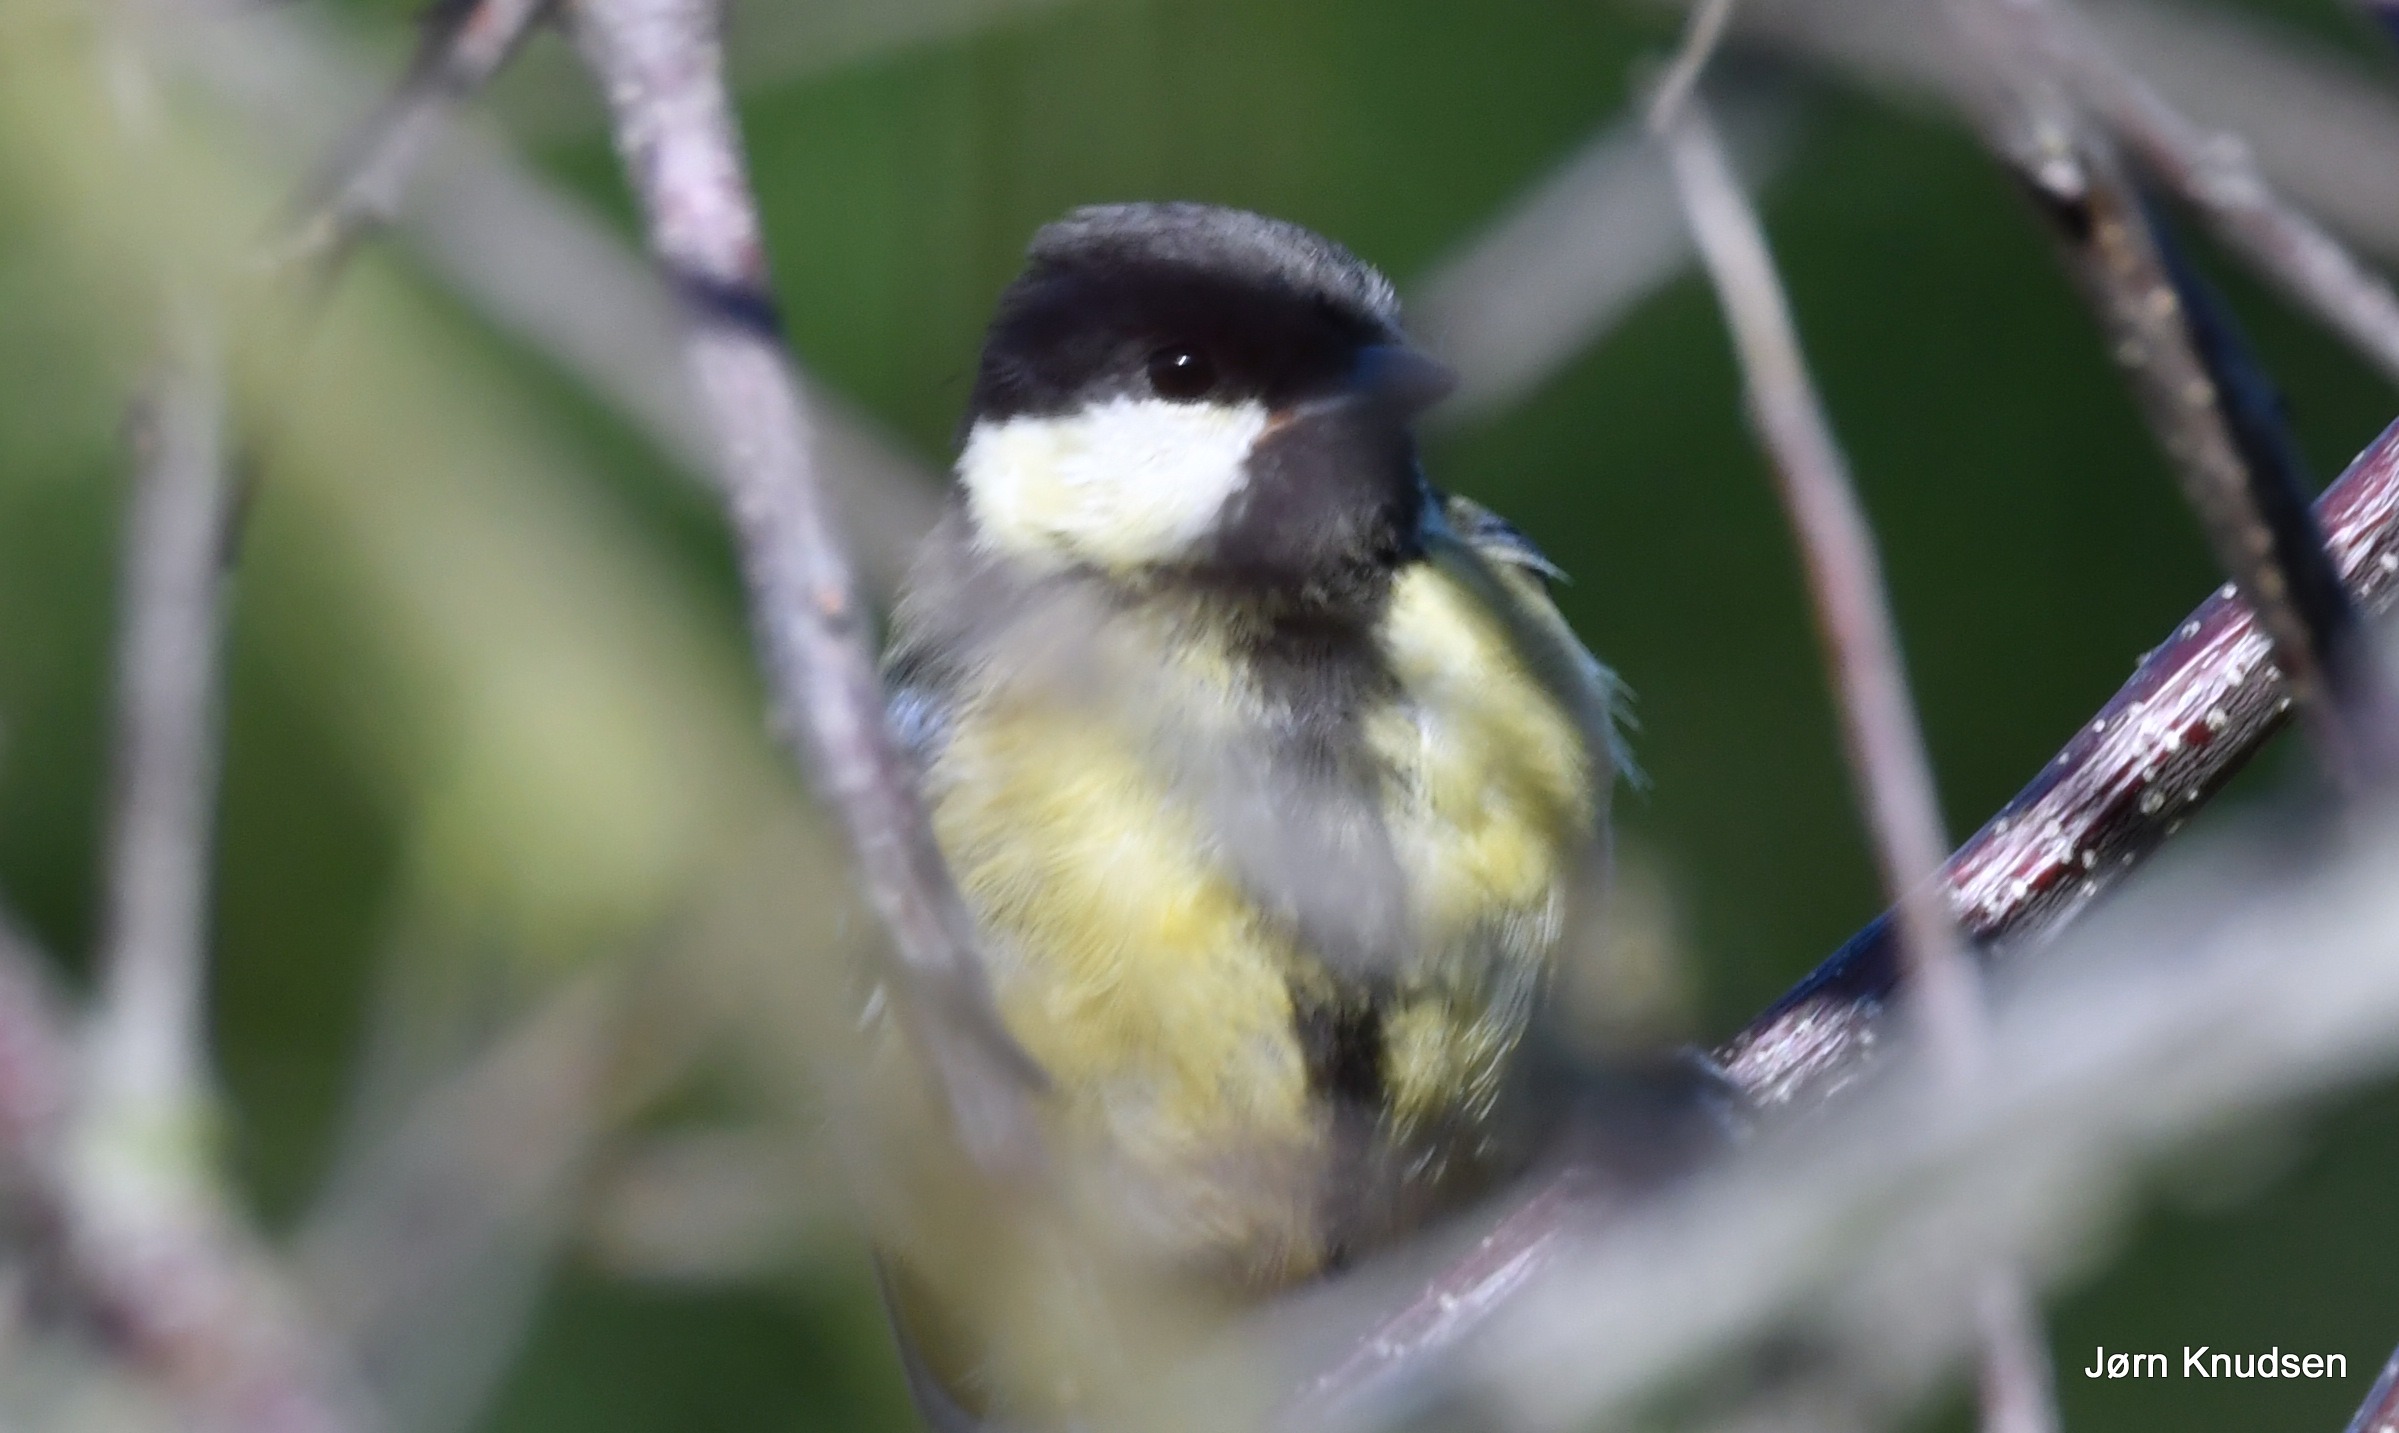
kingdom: Animalia
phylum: Chordata
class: Aves
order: Passeriformes
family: Paridae
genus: Parus
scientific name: Parus major
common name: Musvit
